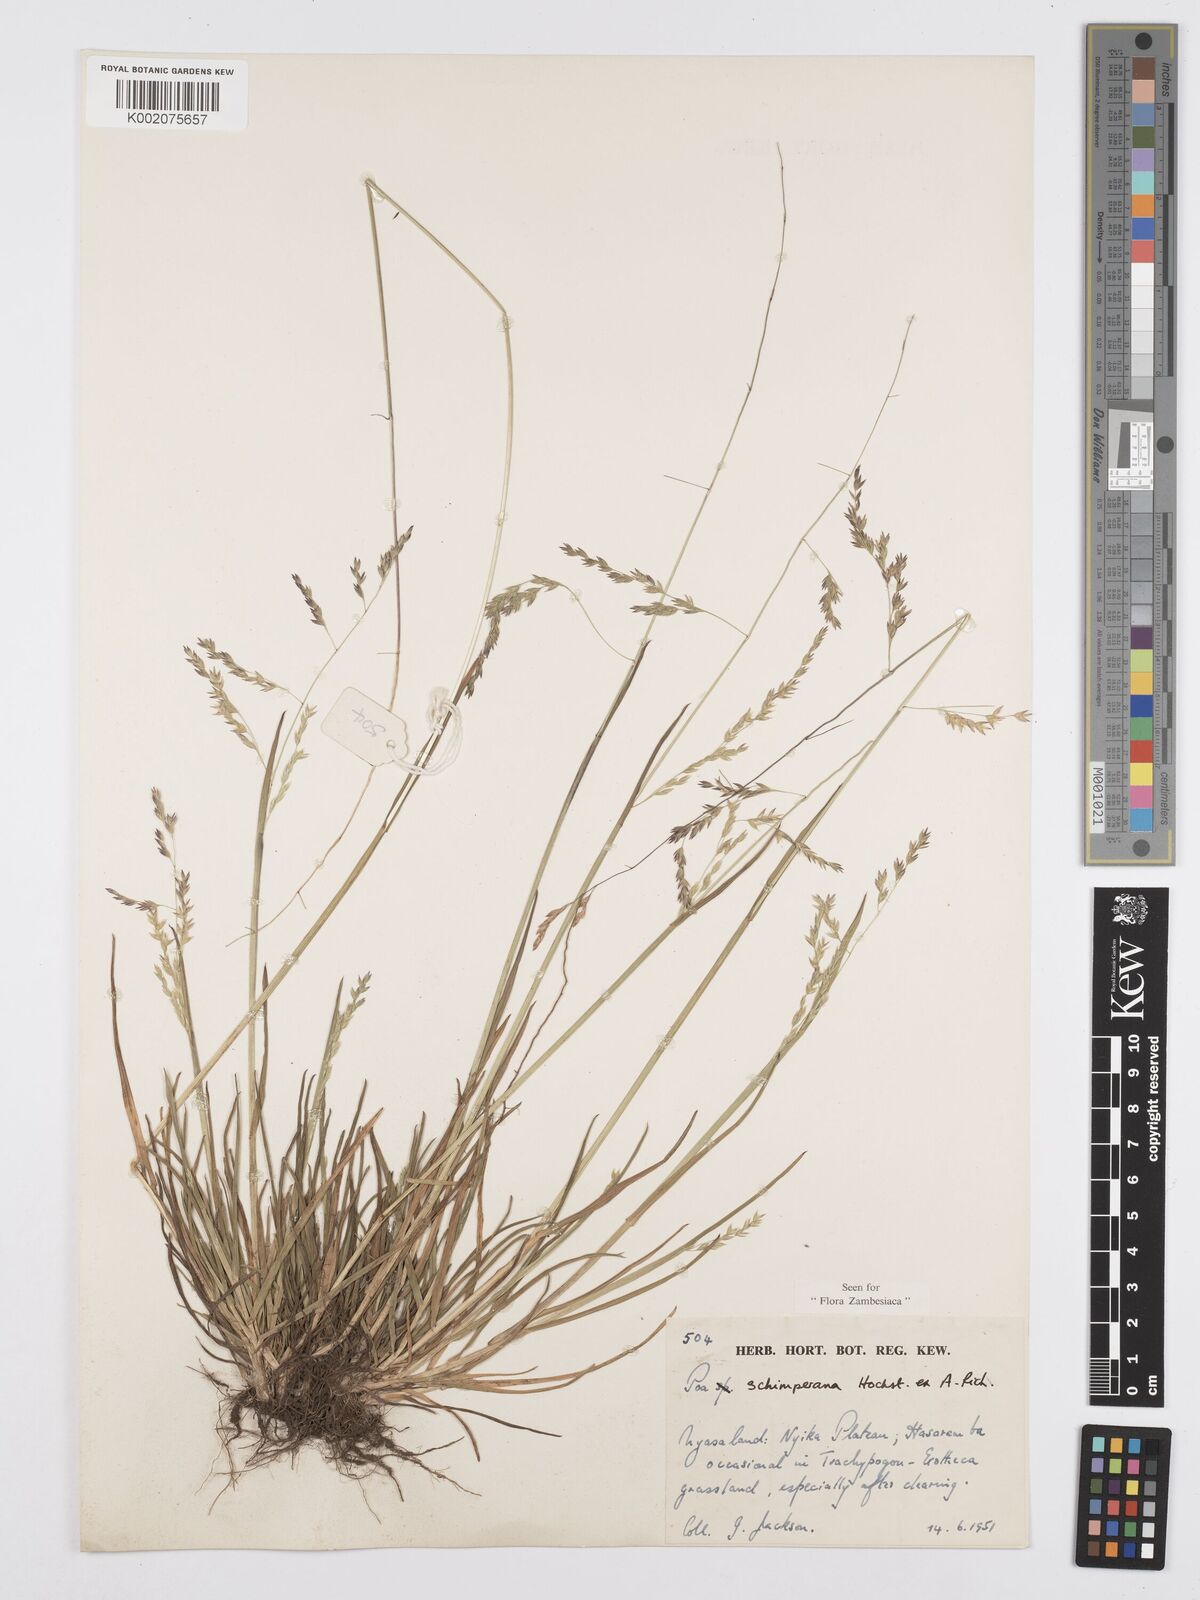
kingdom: Plantae
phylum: Tracheophyta
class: Liliopsida
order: Poales
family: Poaceae
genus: Poa
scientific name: Poa schimperiana
